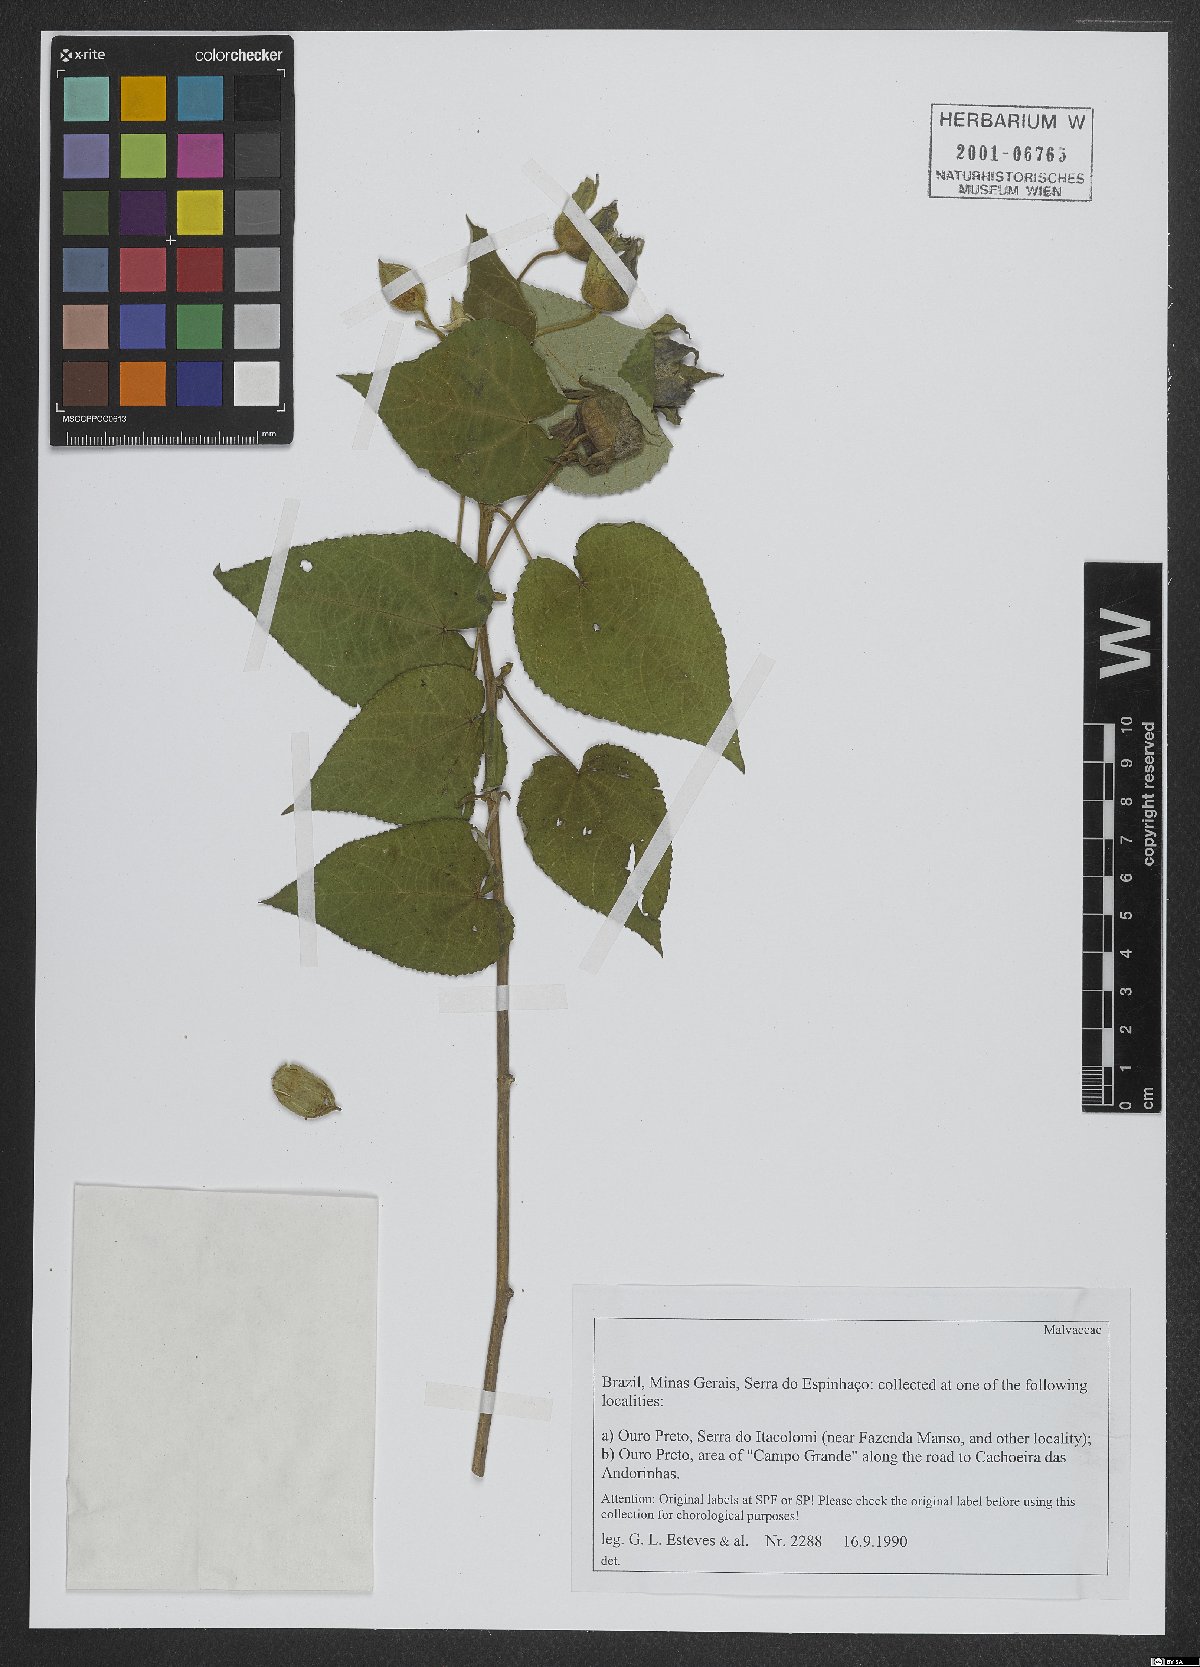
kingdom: Plantae
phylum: Tracheophyta
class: Magnoliopsida
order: Malvales
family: Malvaceae
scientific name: Malvaceae
